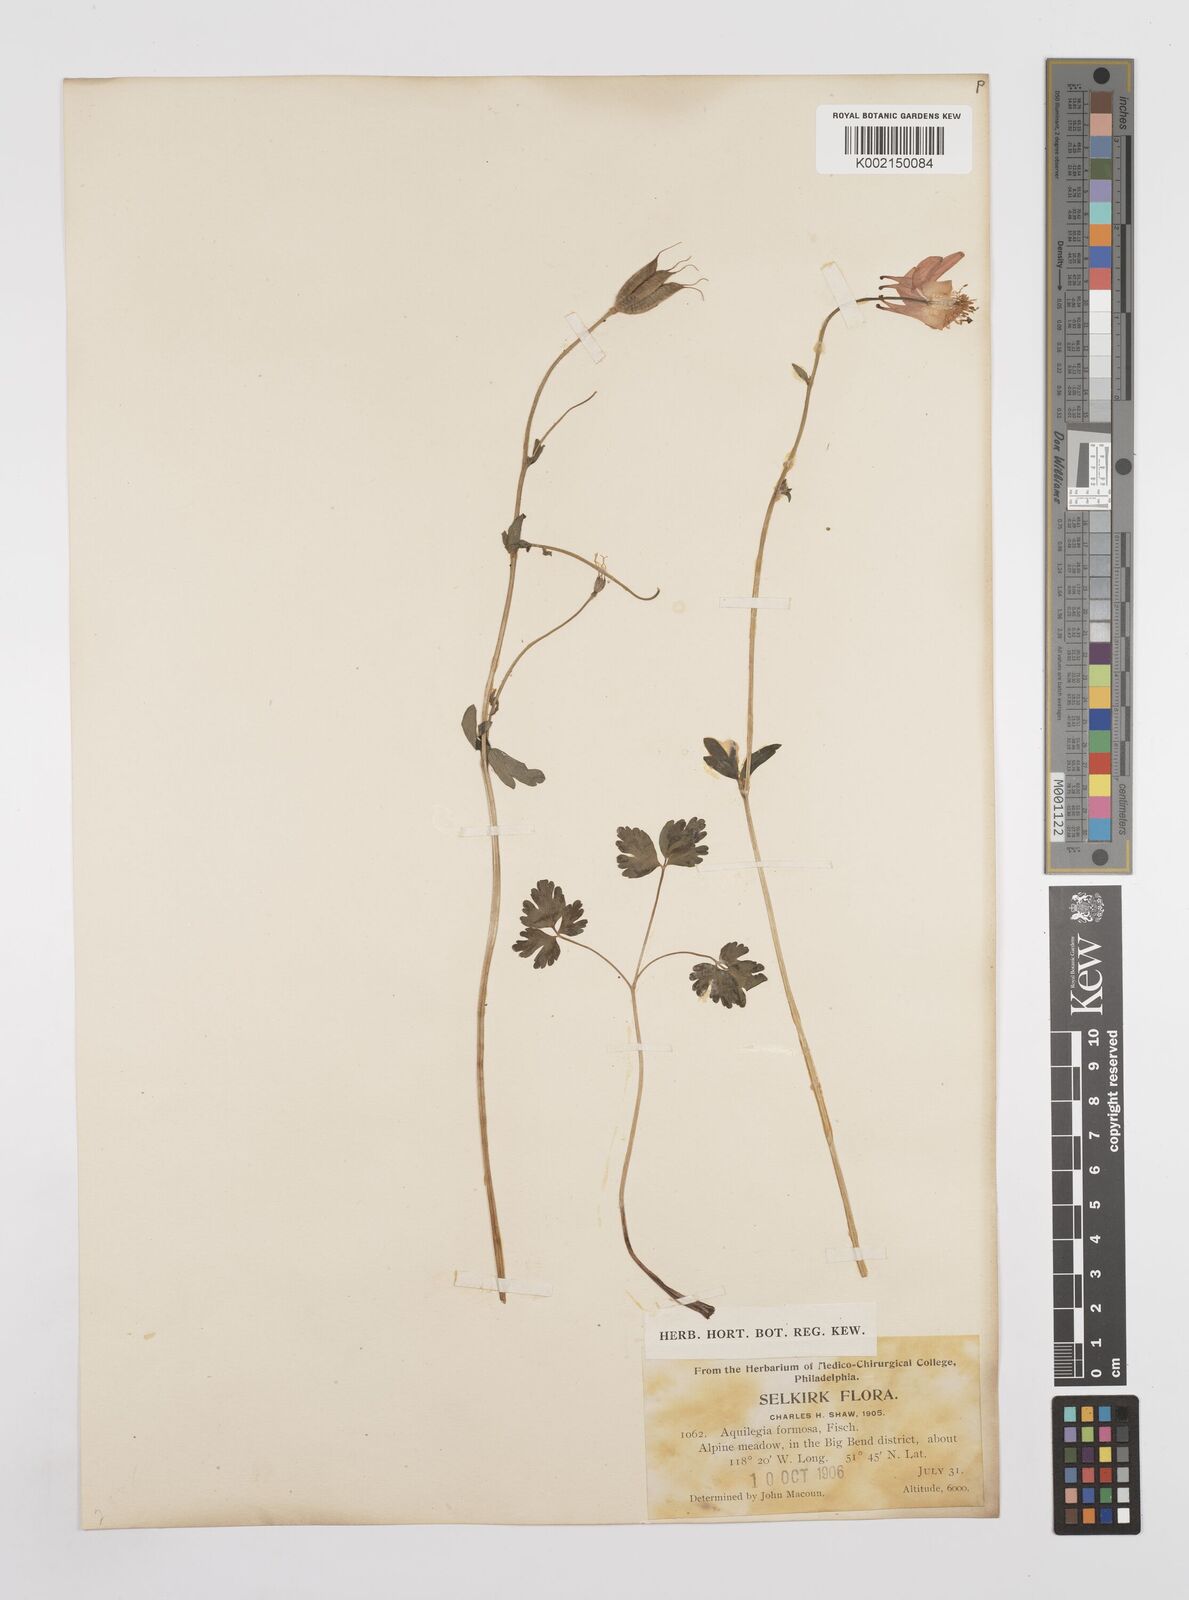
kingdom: Plantae
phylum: Tracheophyta
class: Magnoliopsida
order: Ranunculales
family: Ranunculaceae
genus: Aquilegia
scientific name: Aquilegia
